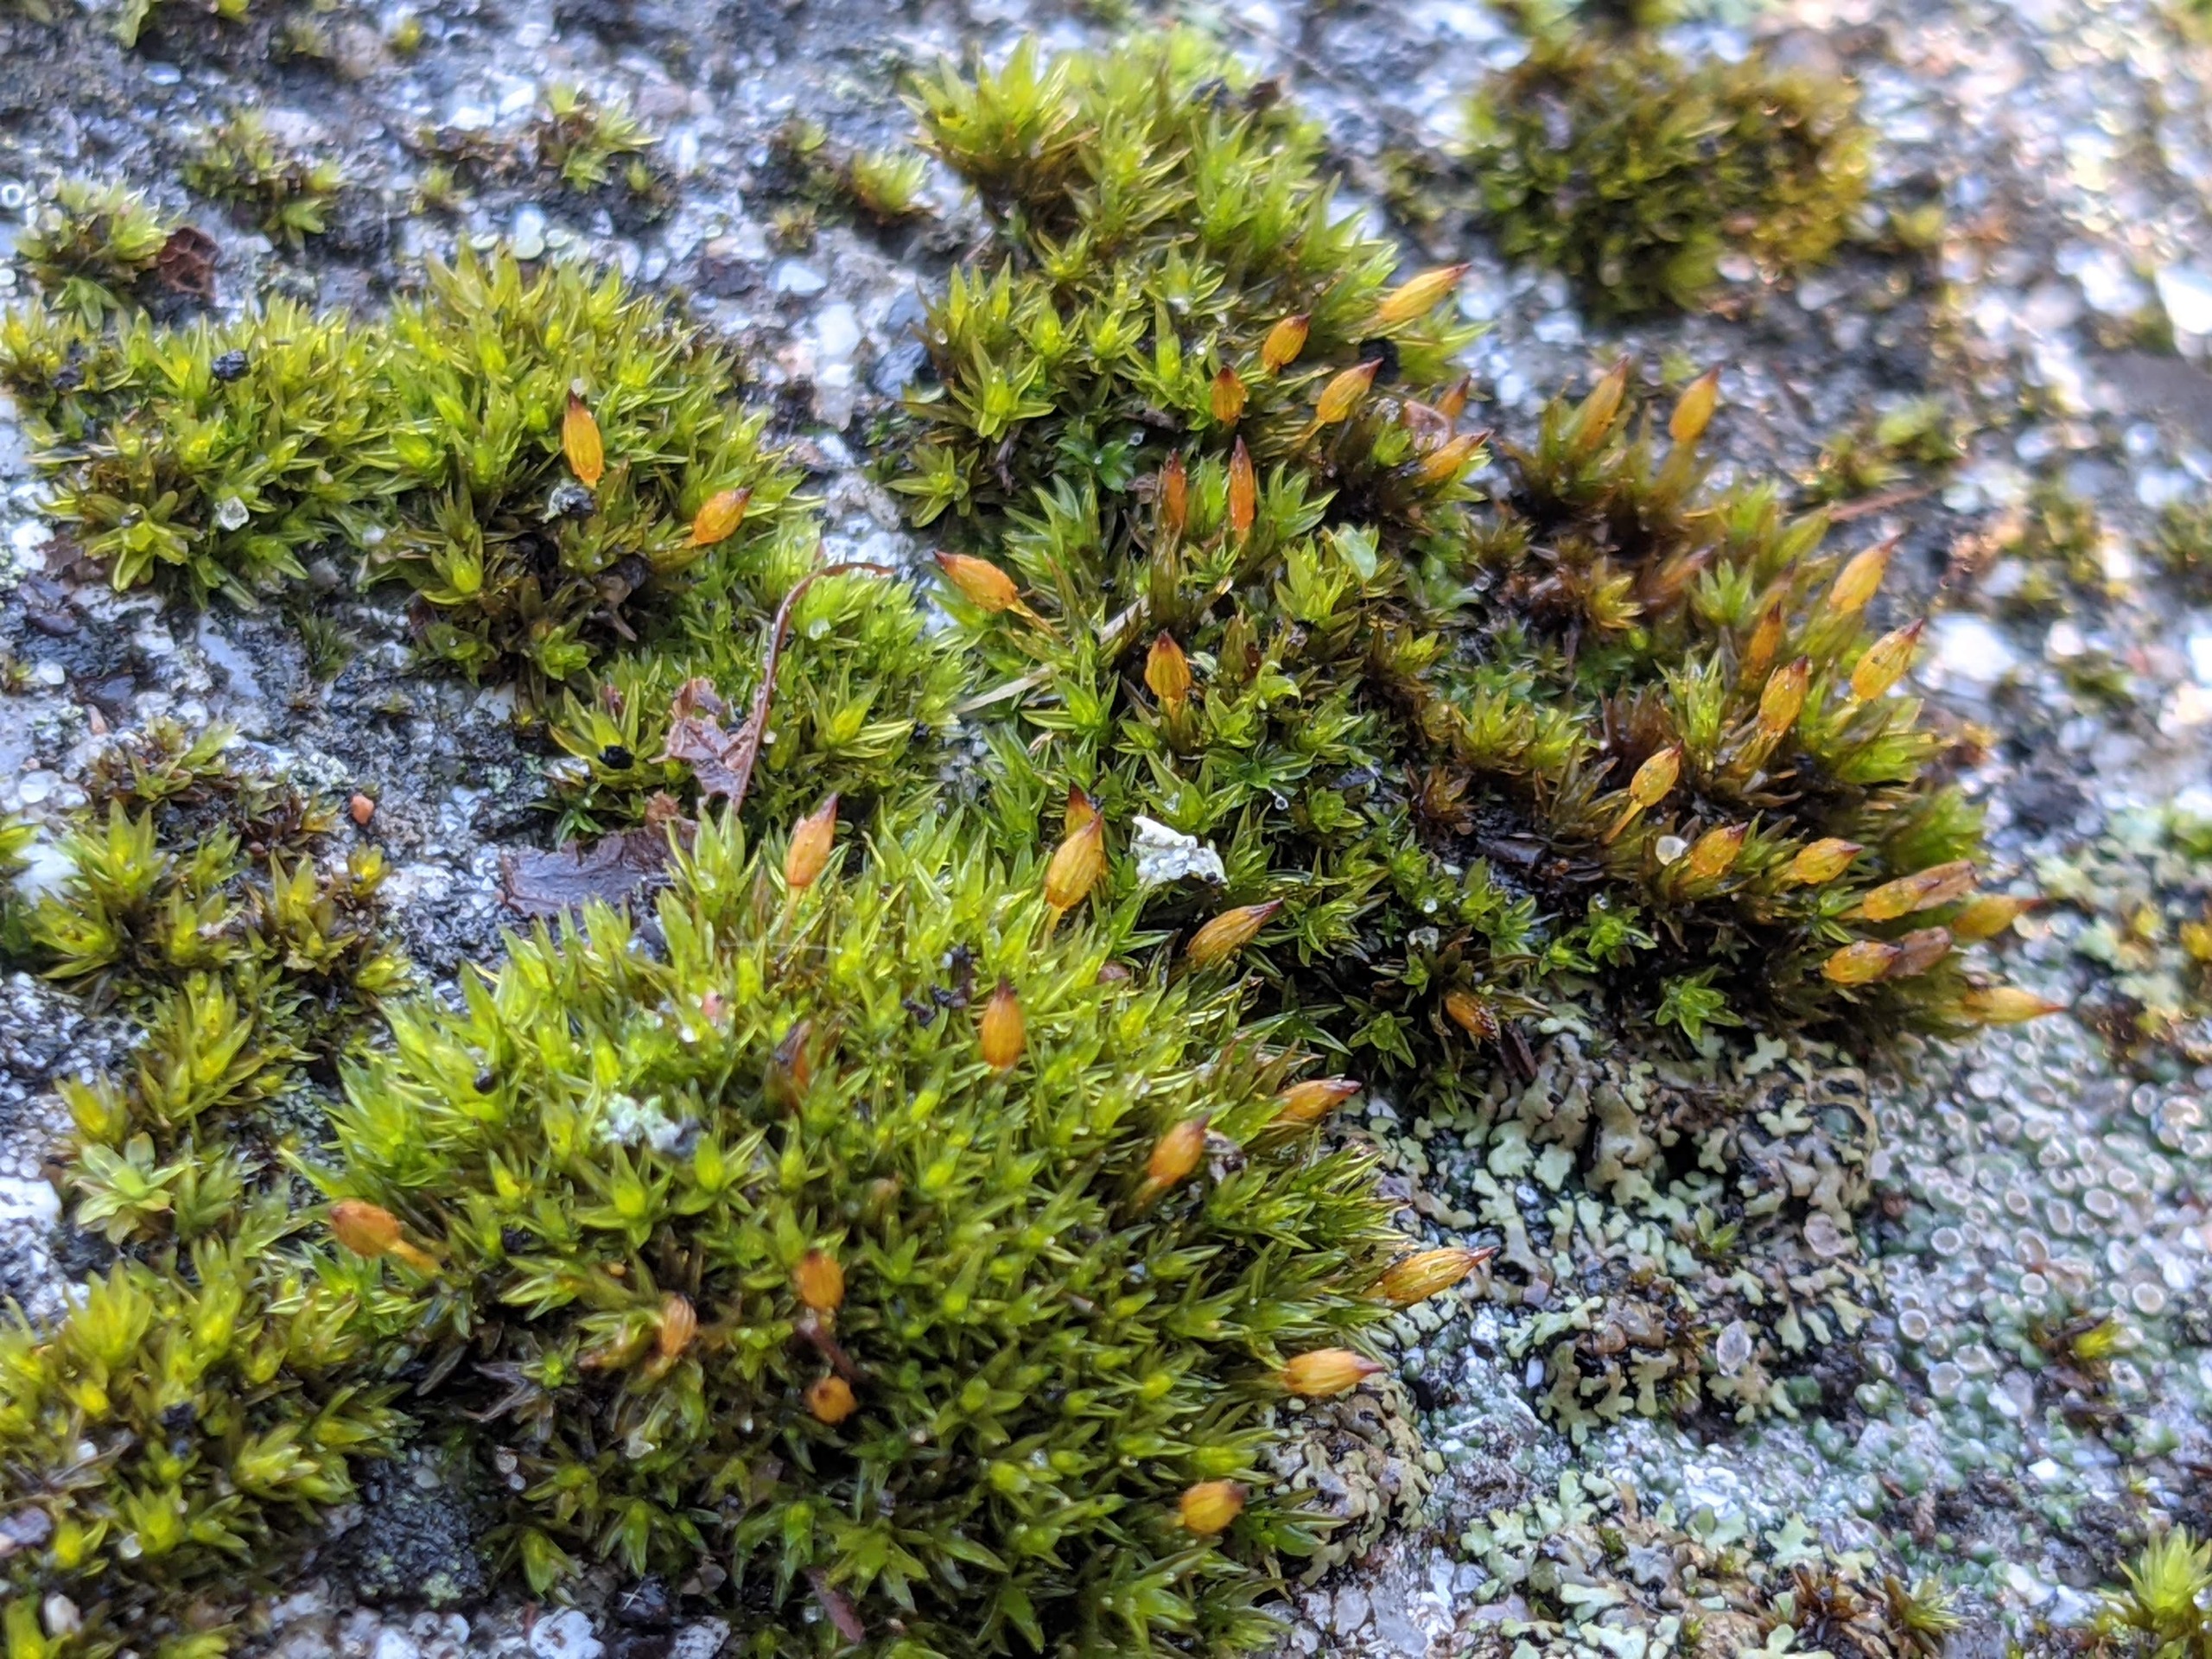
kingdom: Plantae
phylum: Bryophyta
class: Bryopsida
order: Orthotrichales
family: Orthotrichaceae
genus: Orthotrichum
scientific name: Orthotrichum anomalum
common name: Mørk furehætte
